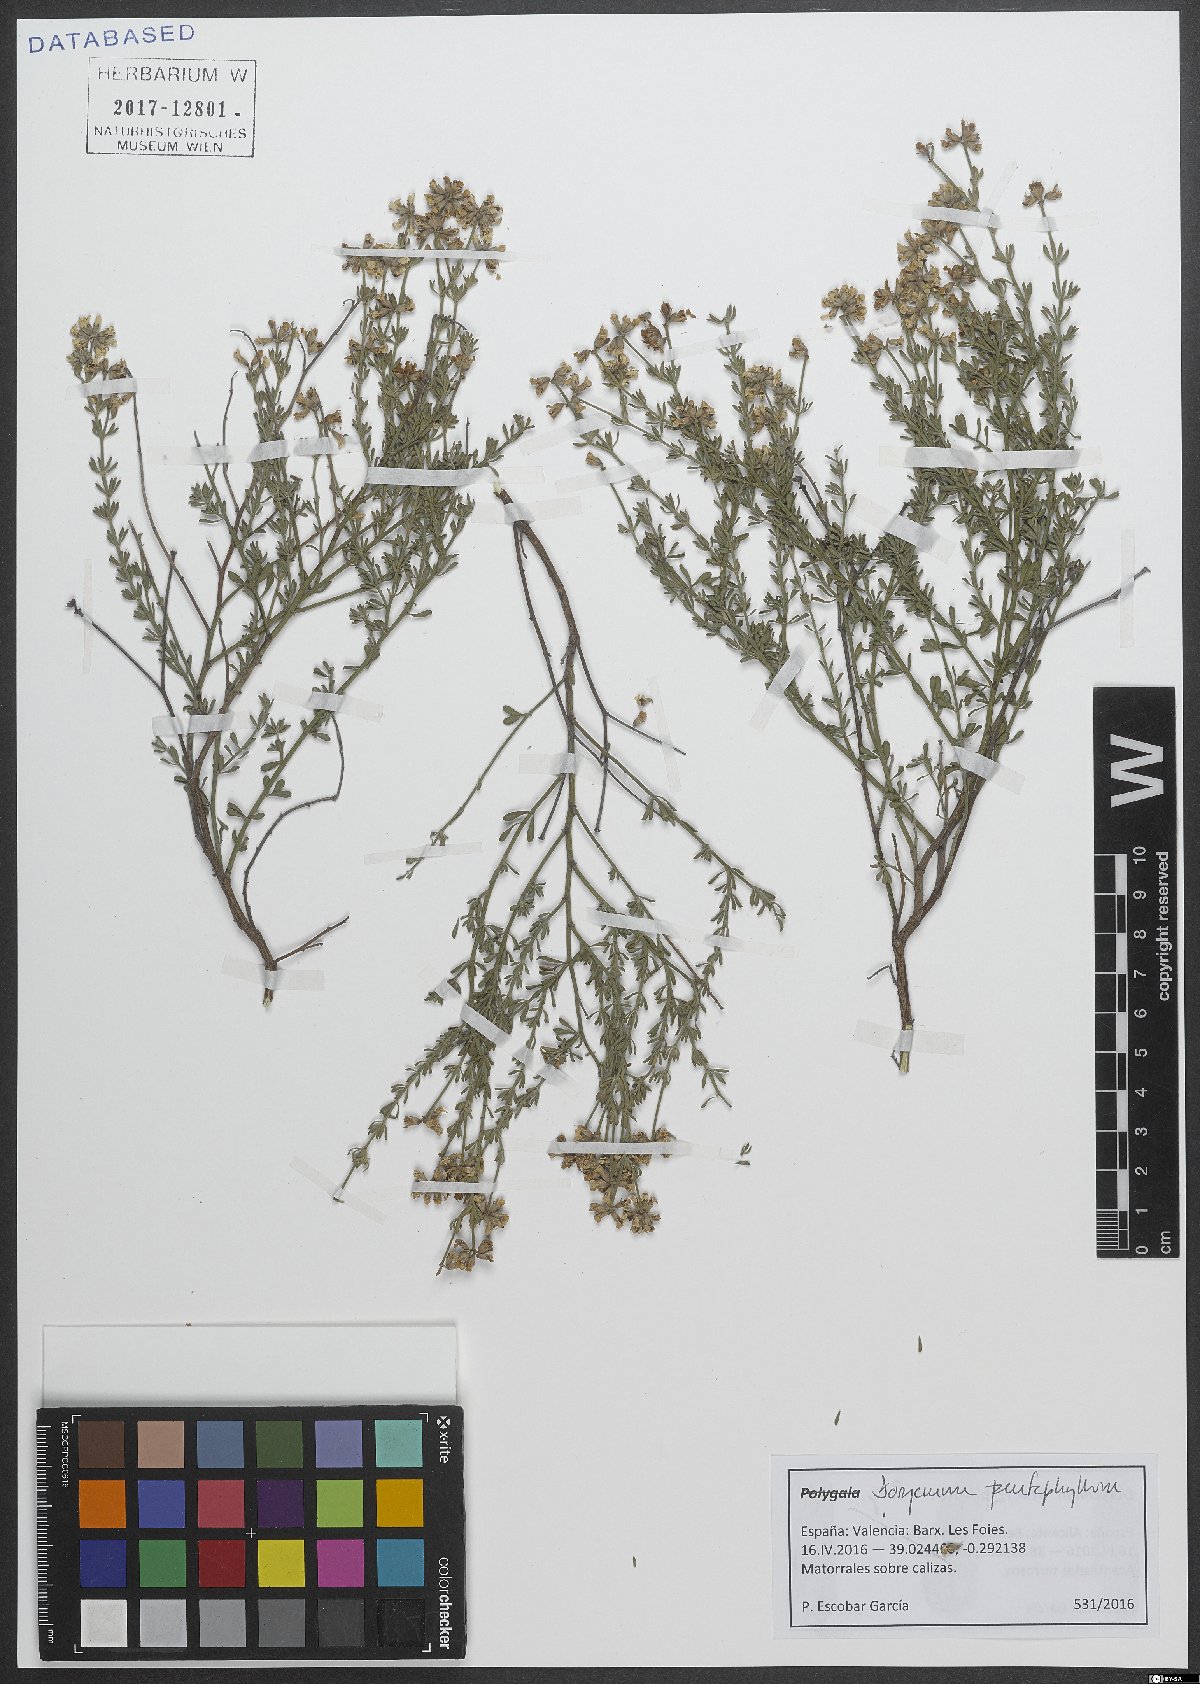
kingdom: Plantae
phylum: Tracheophyta
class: Magnoliopsida
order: Fabales
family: Fabaceae
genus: Lotus
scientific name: Lotus dorycnium
